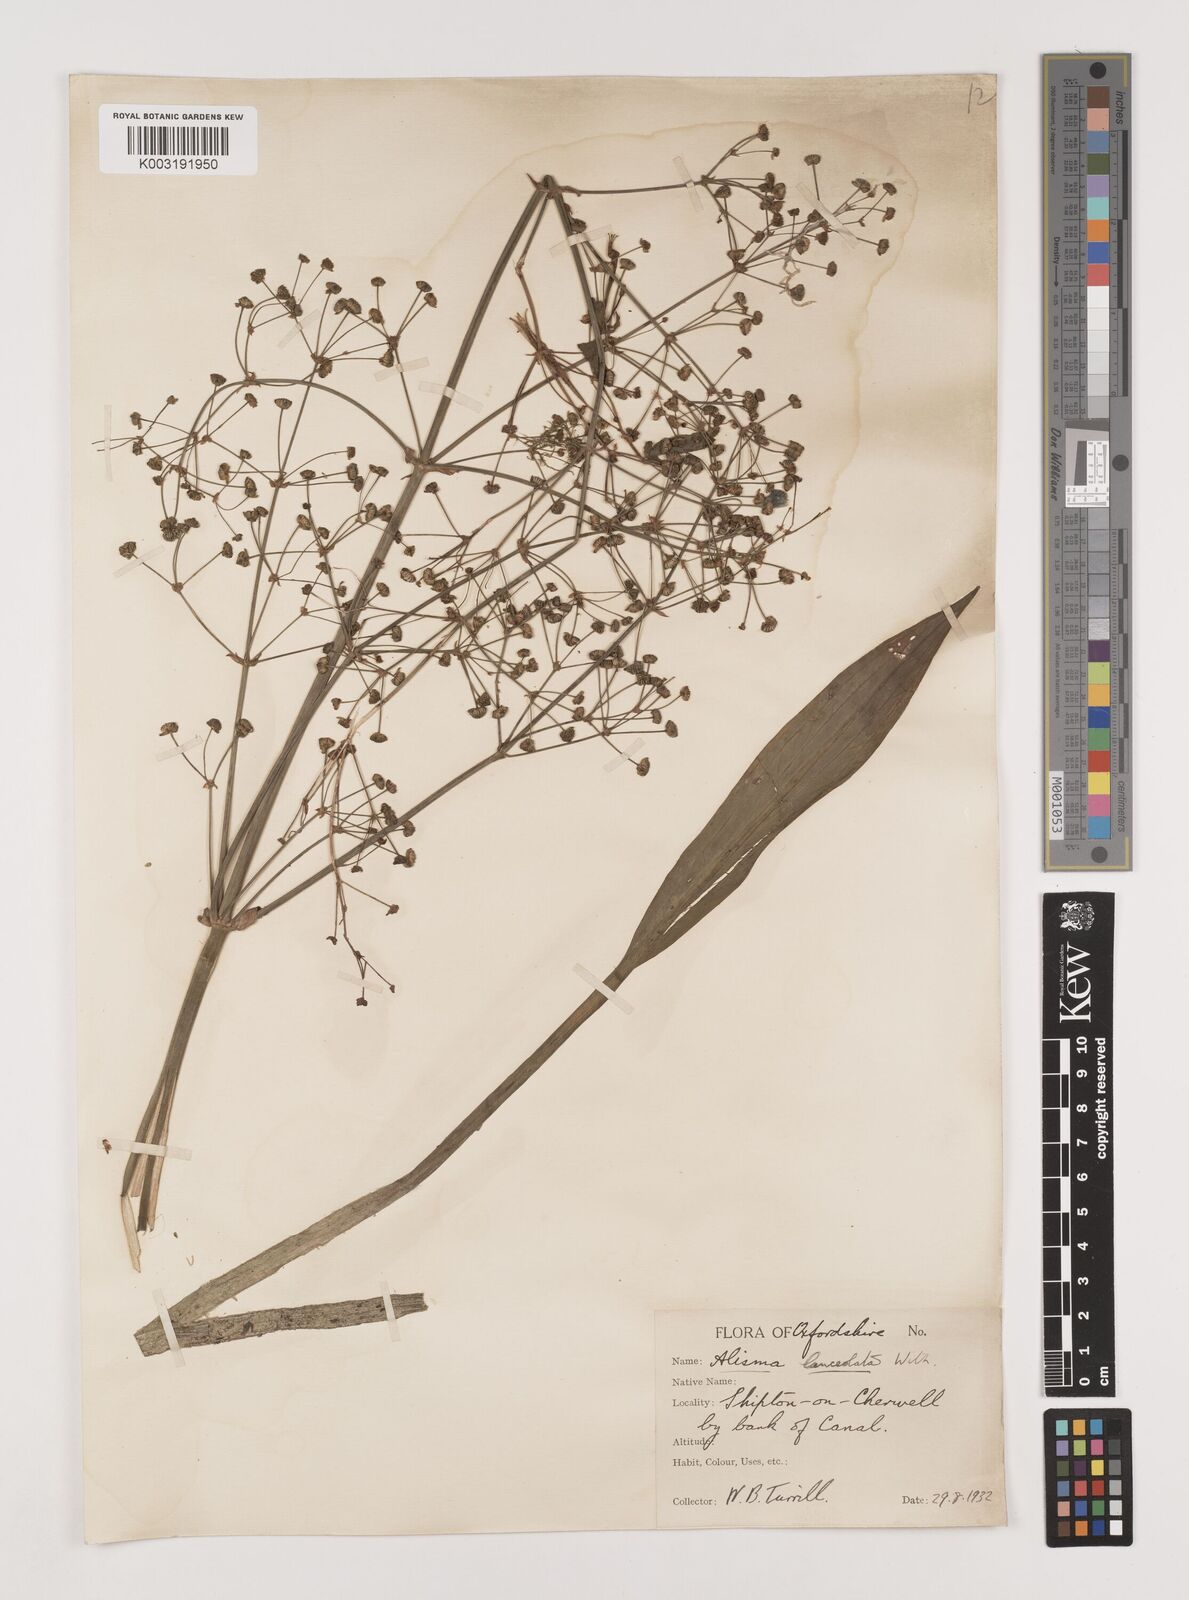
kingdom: Plantae
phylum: Tracheophyta
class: Liliopsida
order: Alismatales
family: Alismataceae
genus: Alisma
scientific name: Alisma lanceolatum
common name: Narrow-leaved water-plantain
